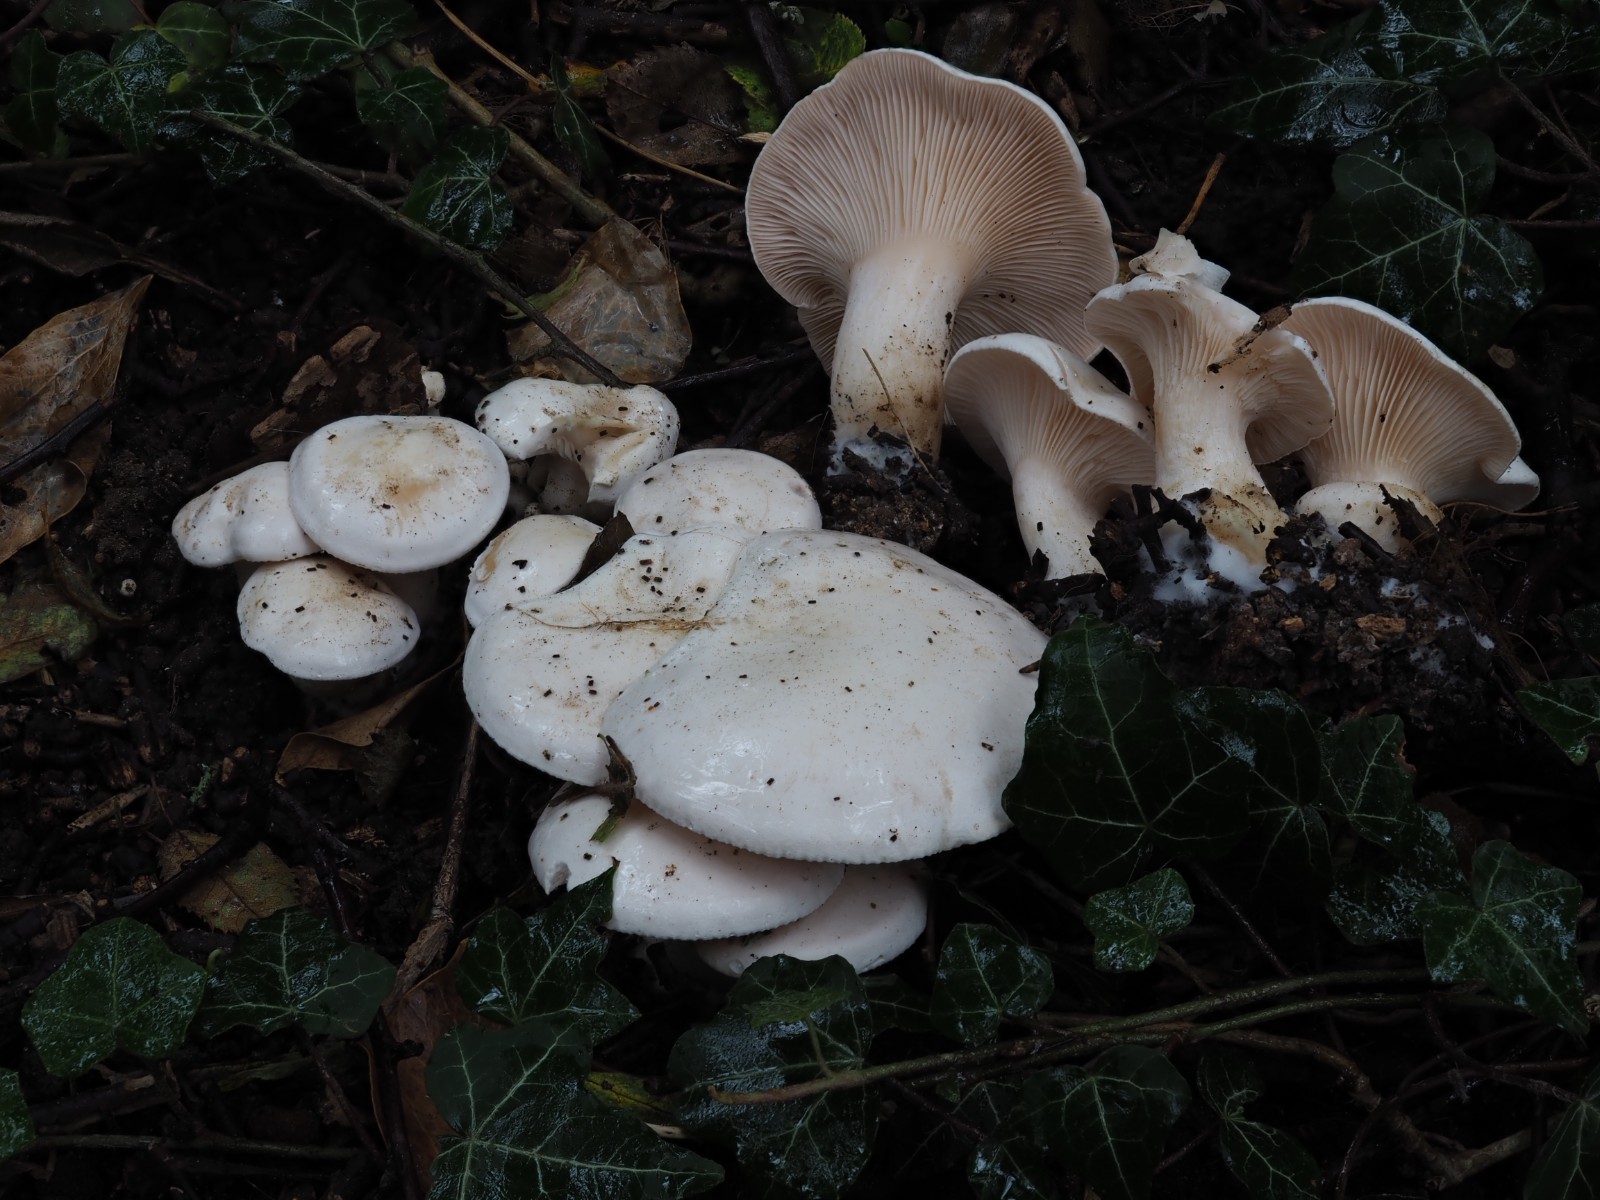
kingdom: Fungi
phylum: Basidiomycota
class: Agaricomycetes
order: Agaricales
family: Tricholomataceae
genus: Pseudoclitopilus
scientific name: Pseudoclitopilus rhodoleucus
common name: rosabladet tragtridderhat
